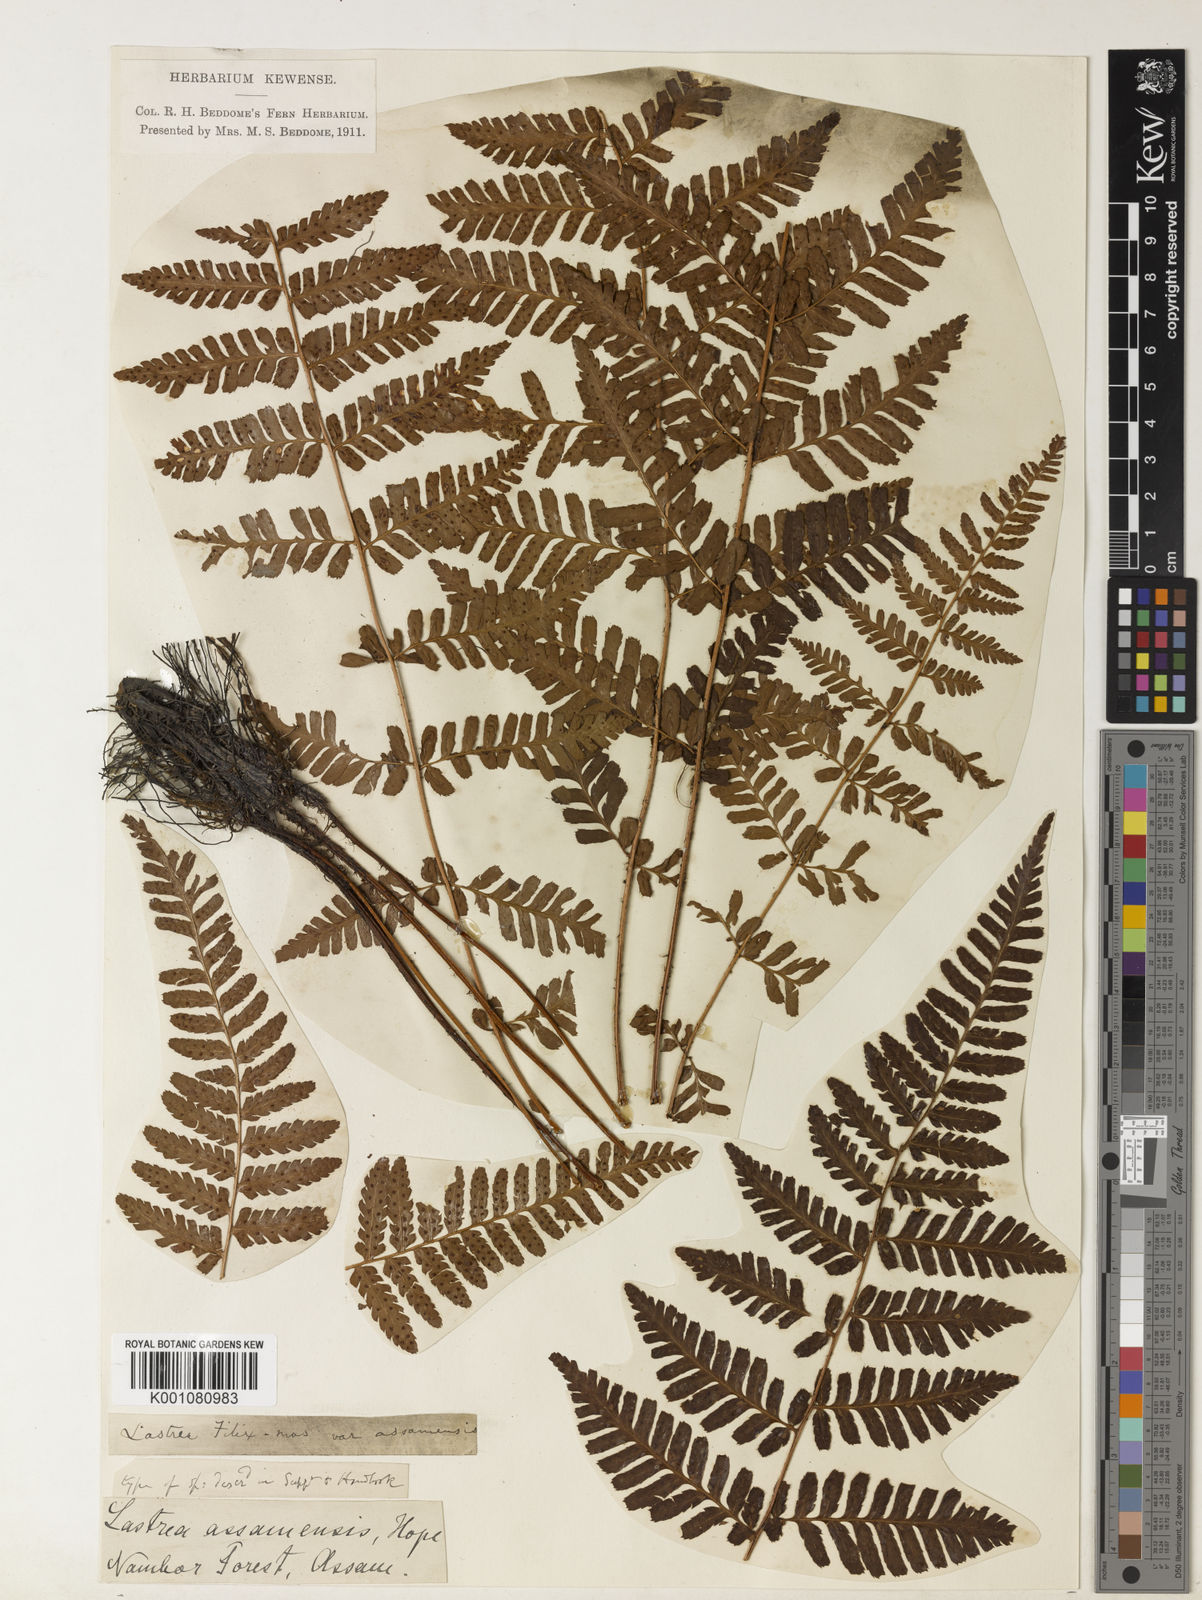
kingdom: Plantae
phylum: Tracheophyta
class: Polypodiopsida
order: Polypodiales
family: Dryopteridaceae
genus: Dryopteris
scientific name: Dryopteris assamensis
